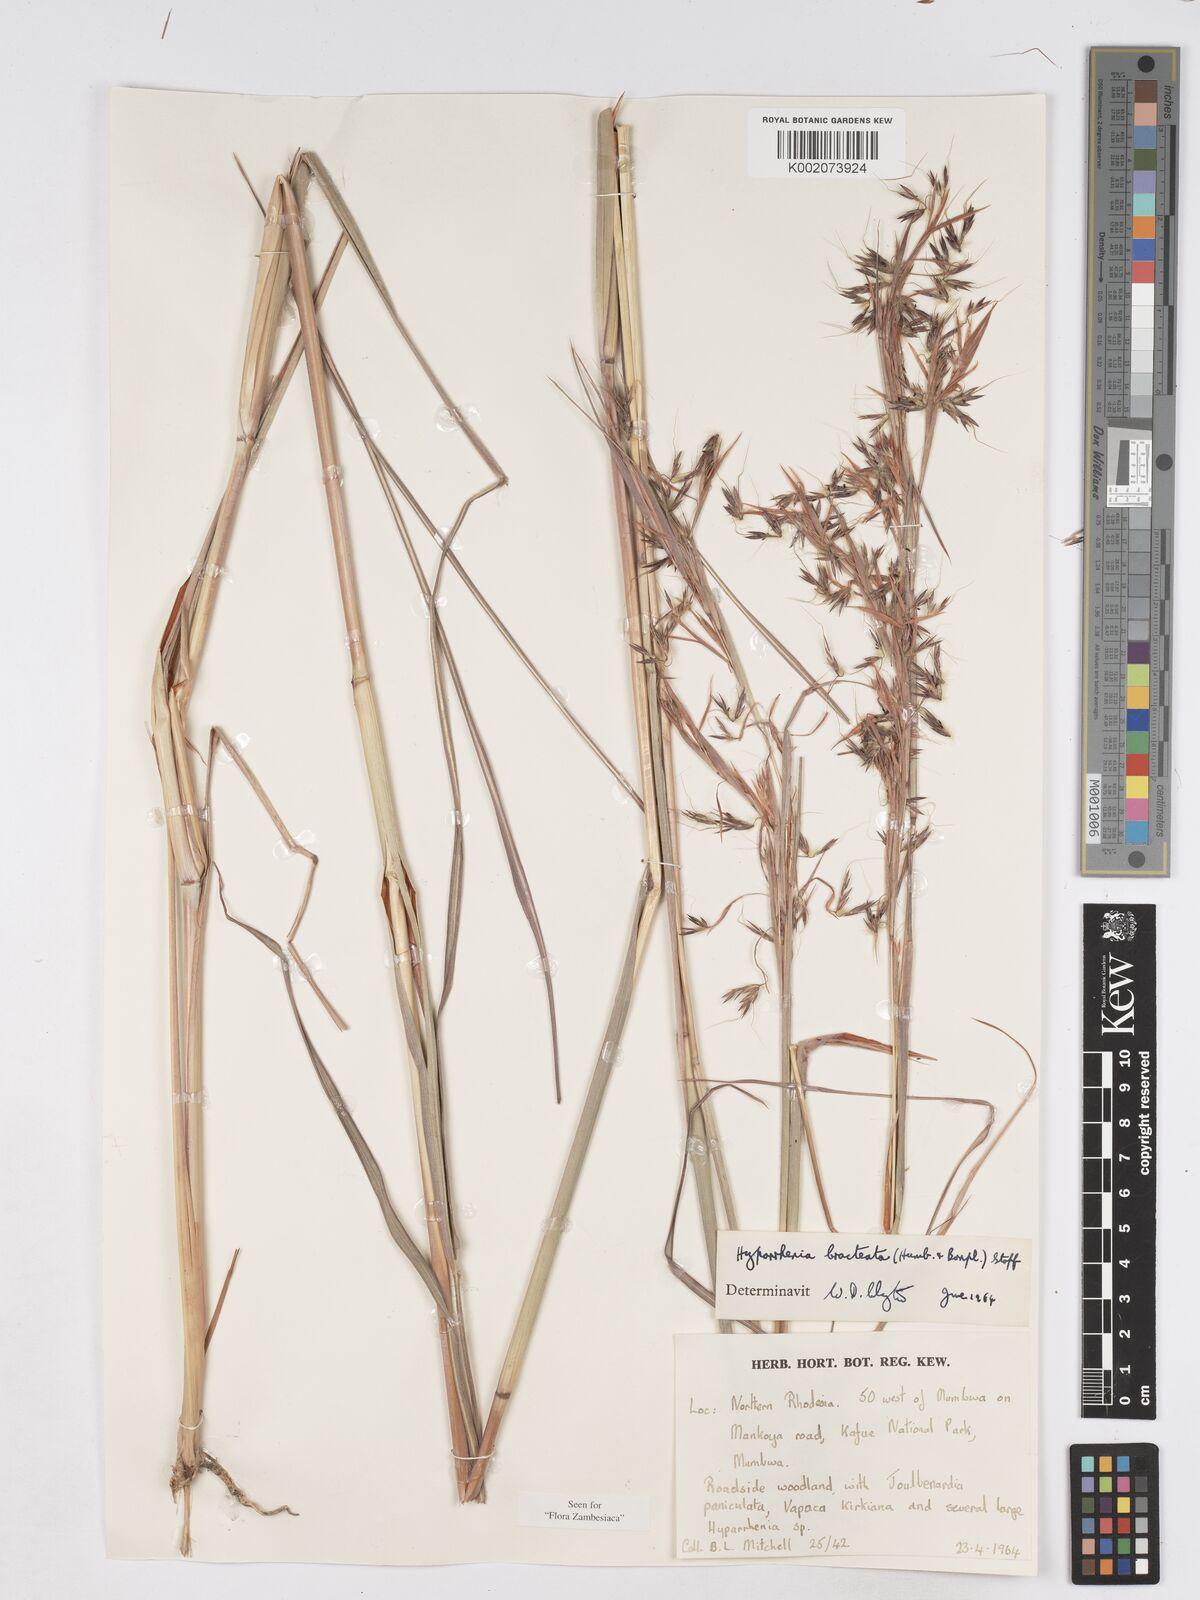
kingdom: Plantae
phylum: Tracheophyta
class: Liliopsida
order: Poales
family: Poaceae
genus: Hyparrhenia
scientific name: Hyparrhenia bracteata
